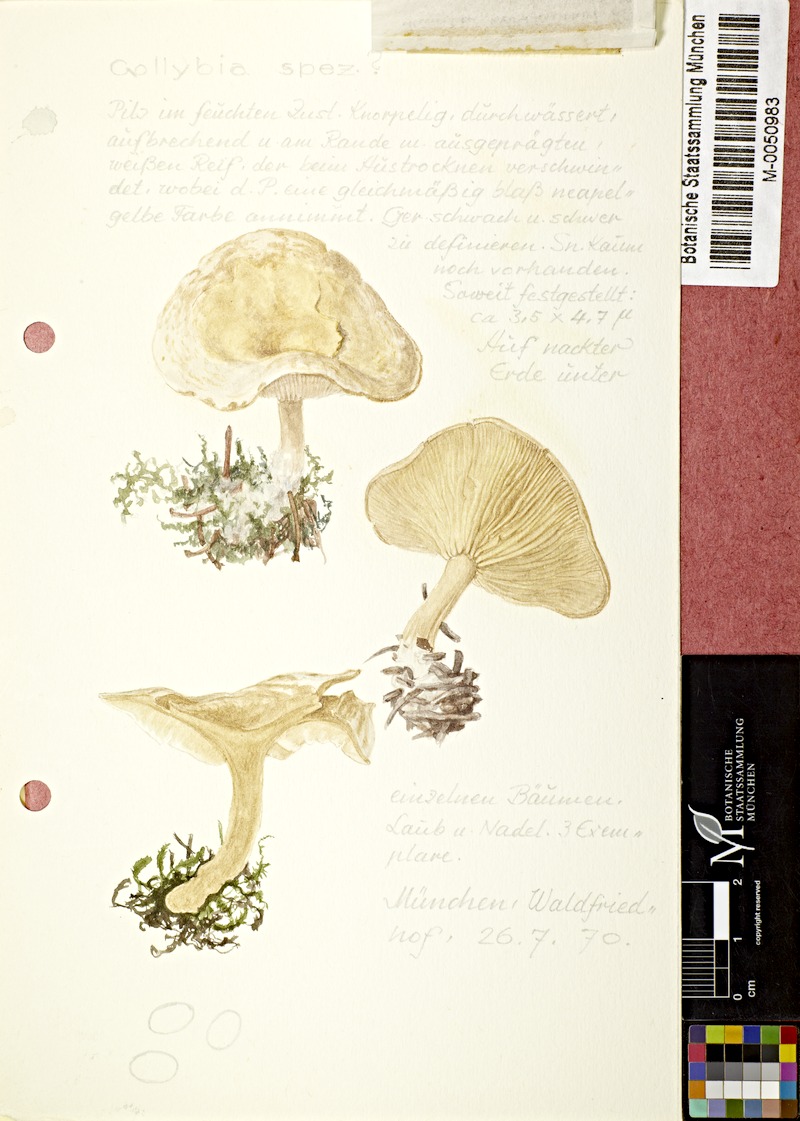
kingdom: Fungi
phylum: Basidiomycota
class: Agaricomycetes
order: Agaricales
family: Tricholomataceae
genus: Collybia
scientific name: Collybia
